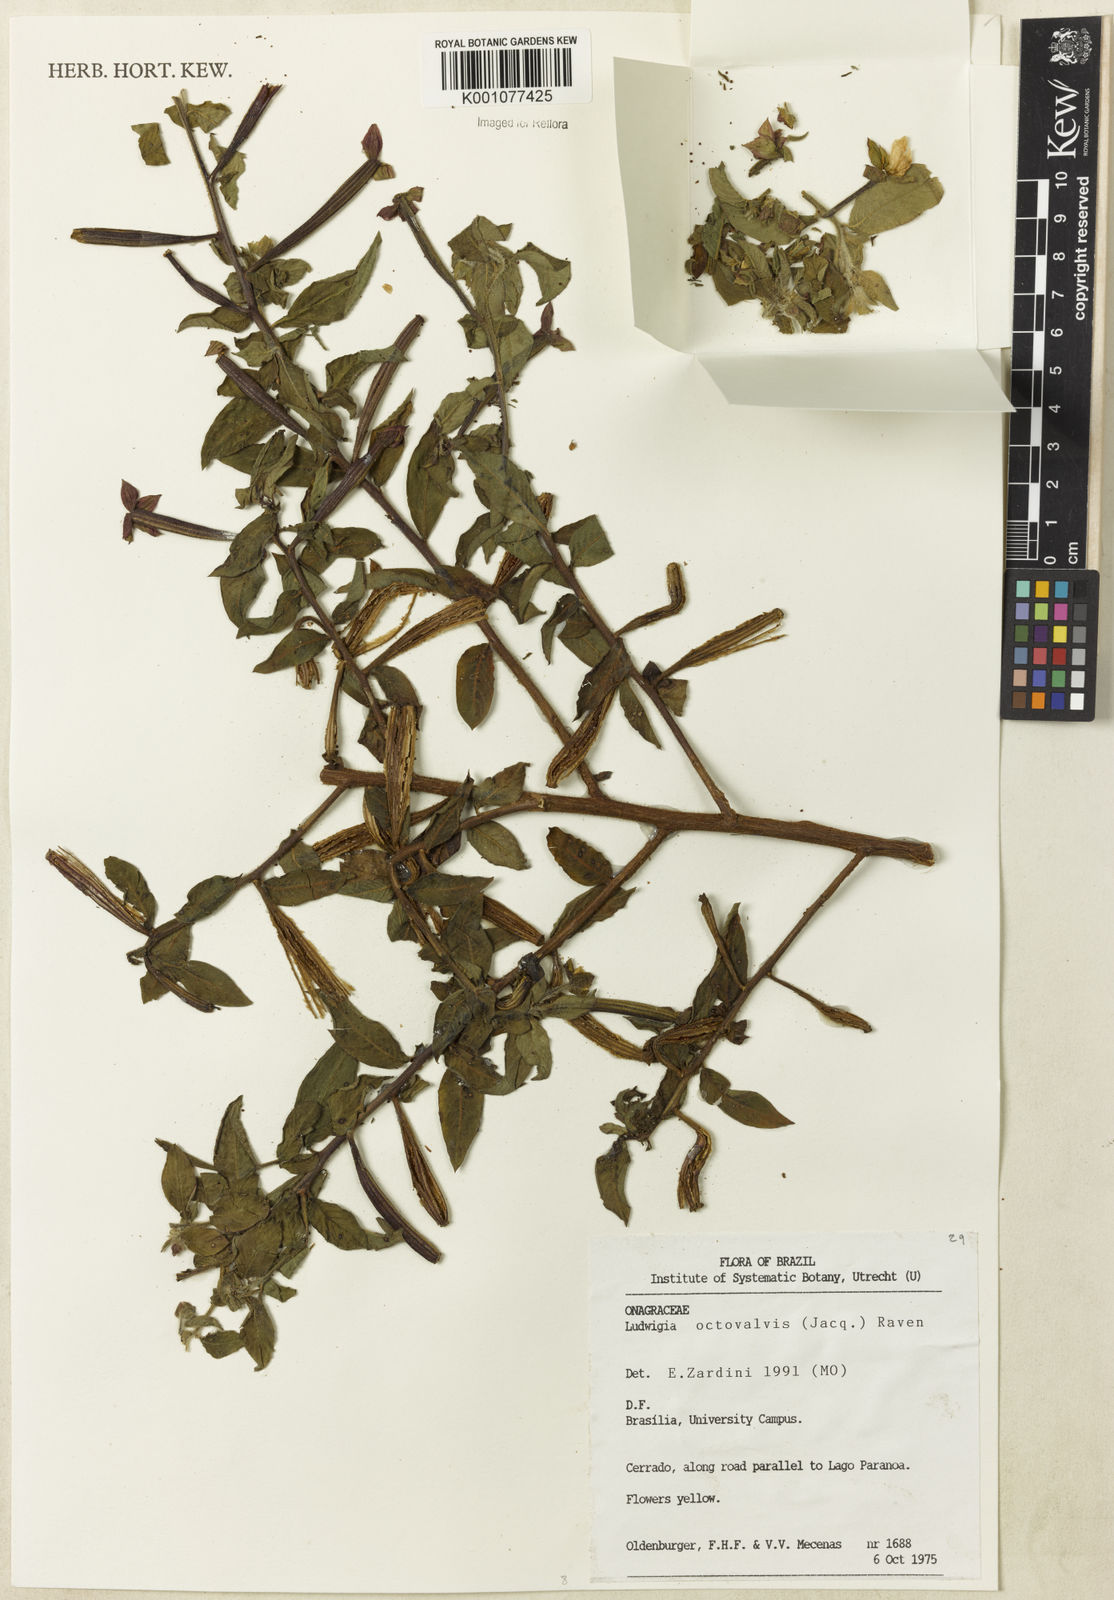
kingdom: Plantae
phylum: Tracheophyta
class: Magnoliopsida
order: Myrtales
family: Onagraceae
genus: Ludwigia
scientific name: Ludwigia octovalvis
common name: Water-primrose
